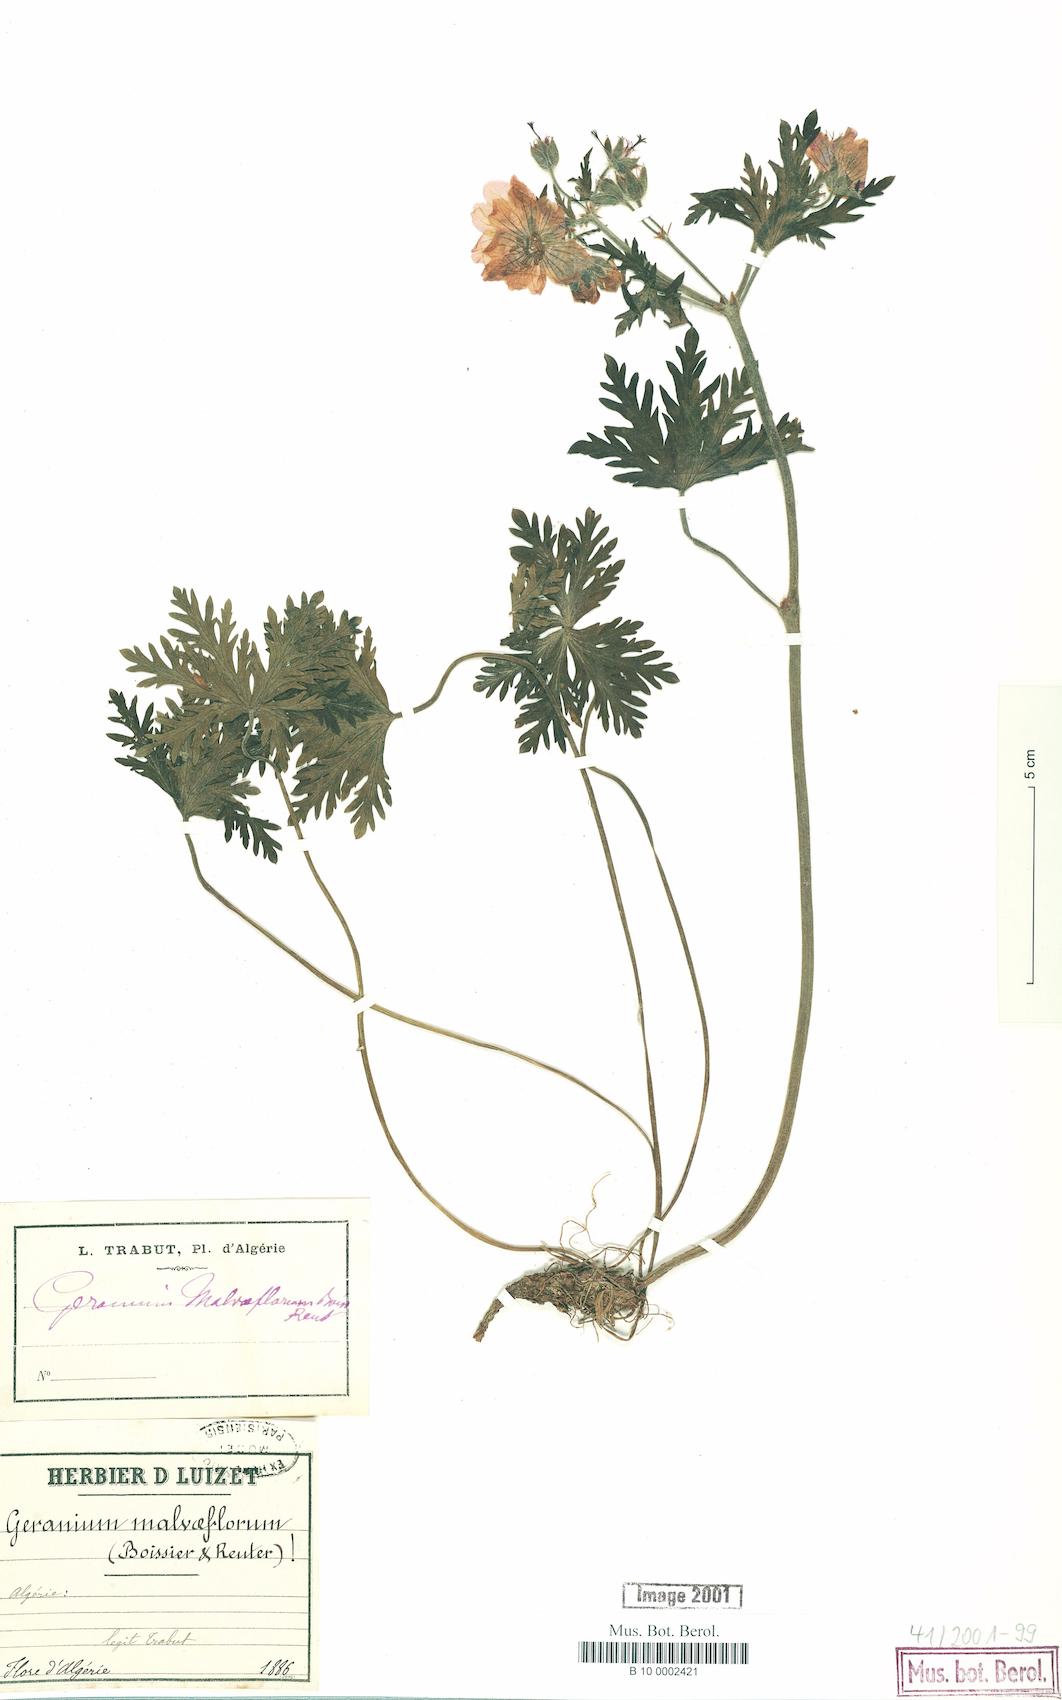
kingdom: Plantae
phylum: Tracheophyta
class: Magnoliopsida
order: Geraniales
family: Geraniaceae
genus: Geranium
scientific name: Geranium malviflorum
